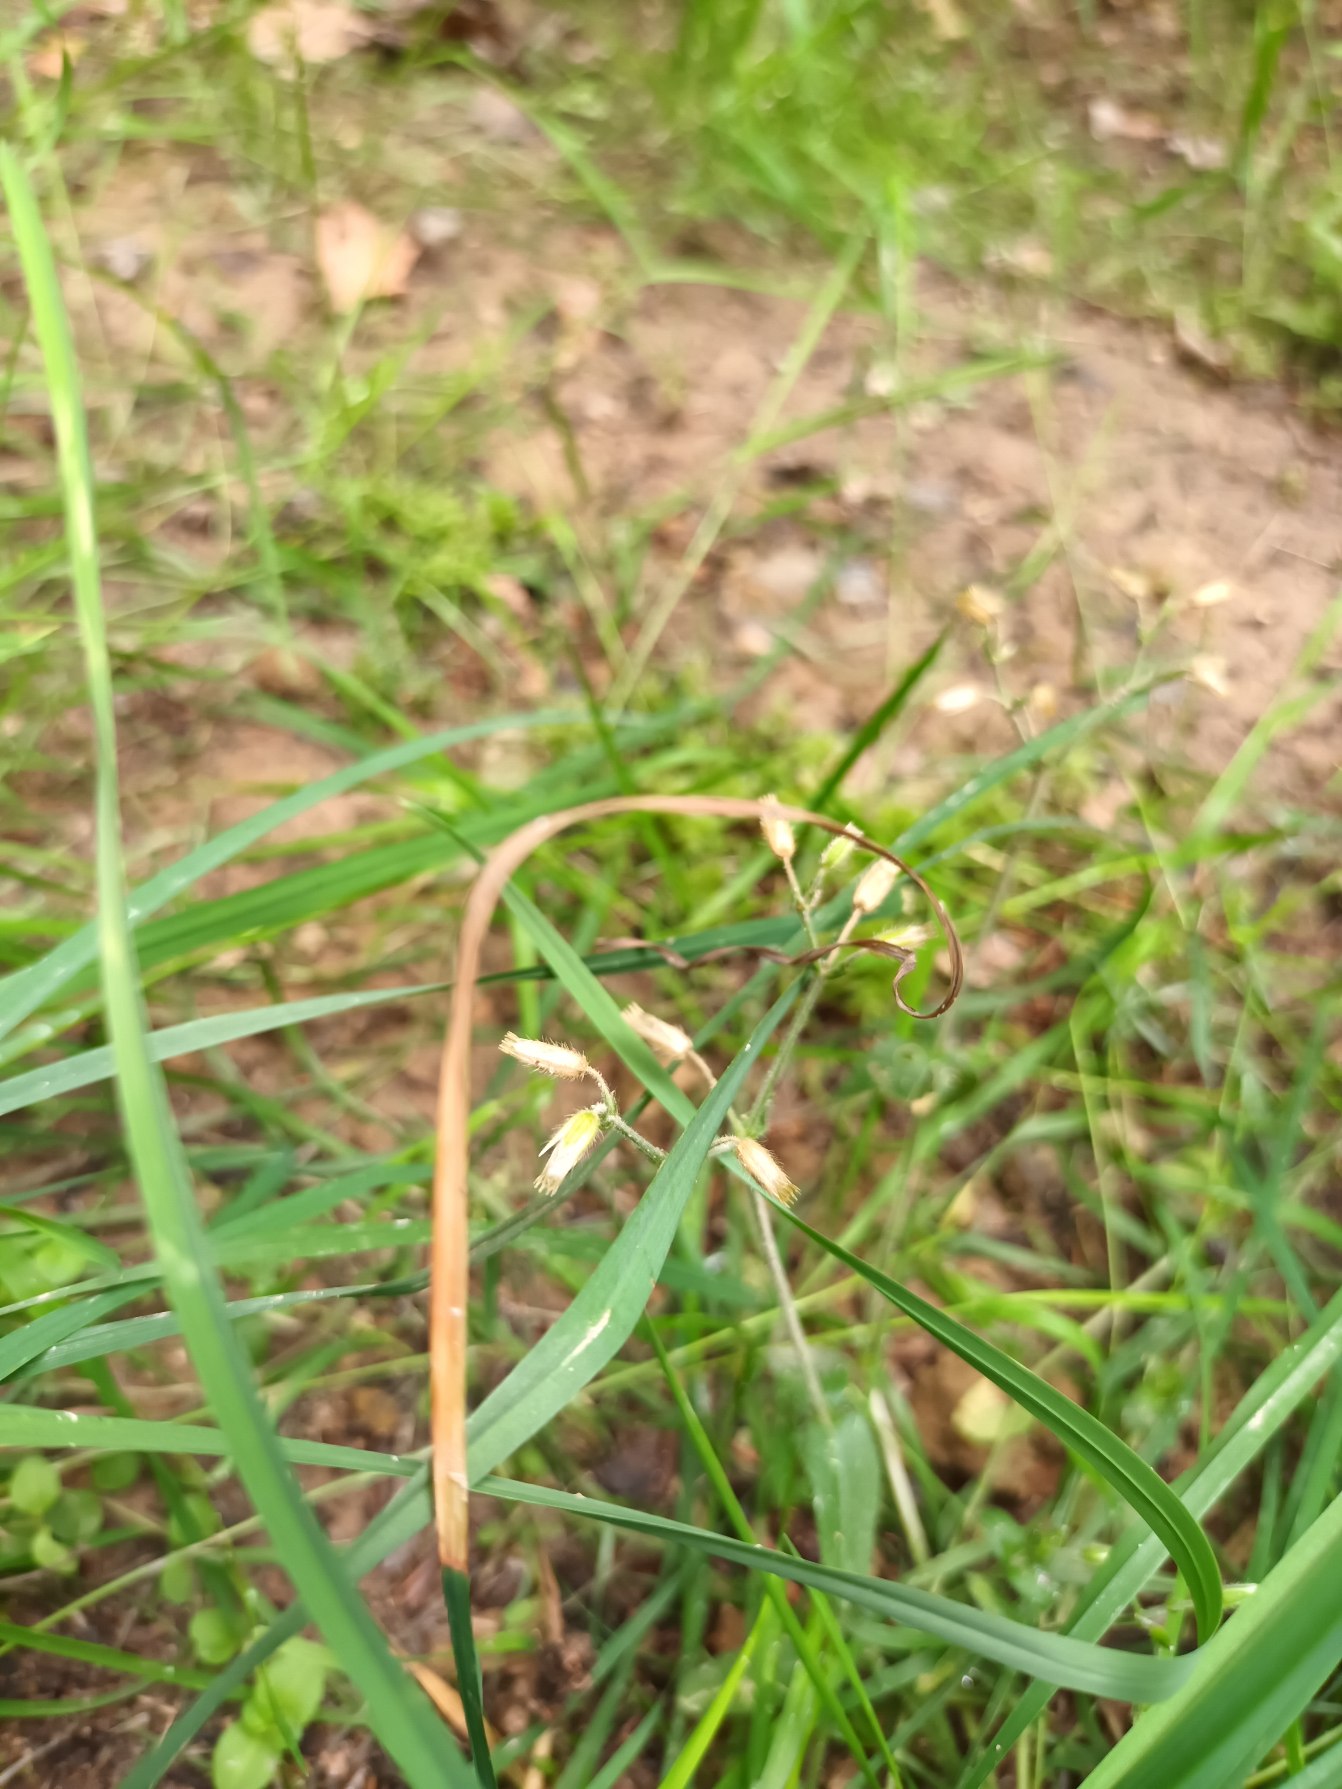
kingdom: Plantae
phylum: Tracheophyta
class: Magnoliopsida
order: Caryophyllales
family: Caryophyllaceae
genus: Cerastium
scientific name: Cerastium fontanum
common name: Almindelig hønsetarm
